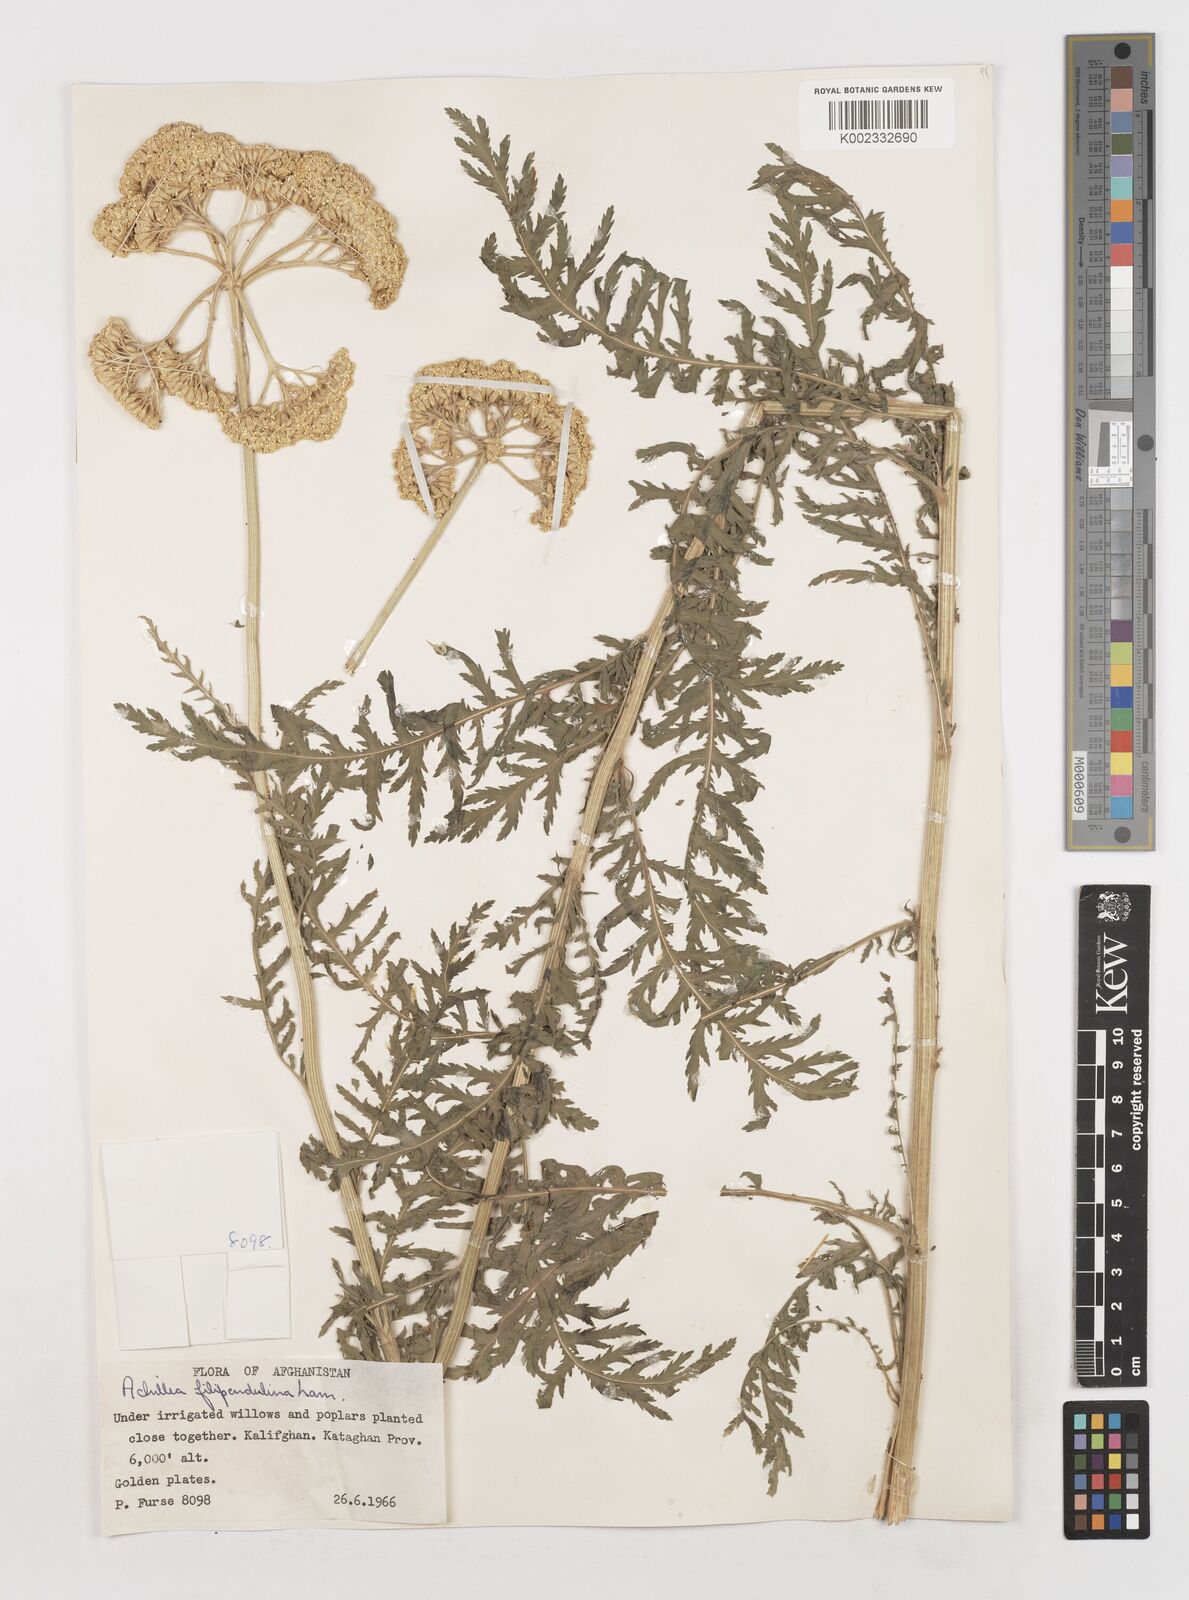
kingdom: Plantae
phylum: Tracheophyta
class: Magnoliopsida
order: Asterales
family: Asteraceae
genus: Achillea
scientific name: Achillea filipendulina
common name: Fernleaf yarrow
